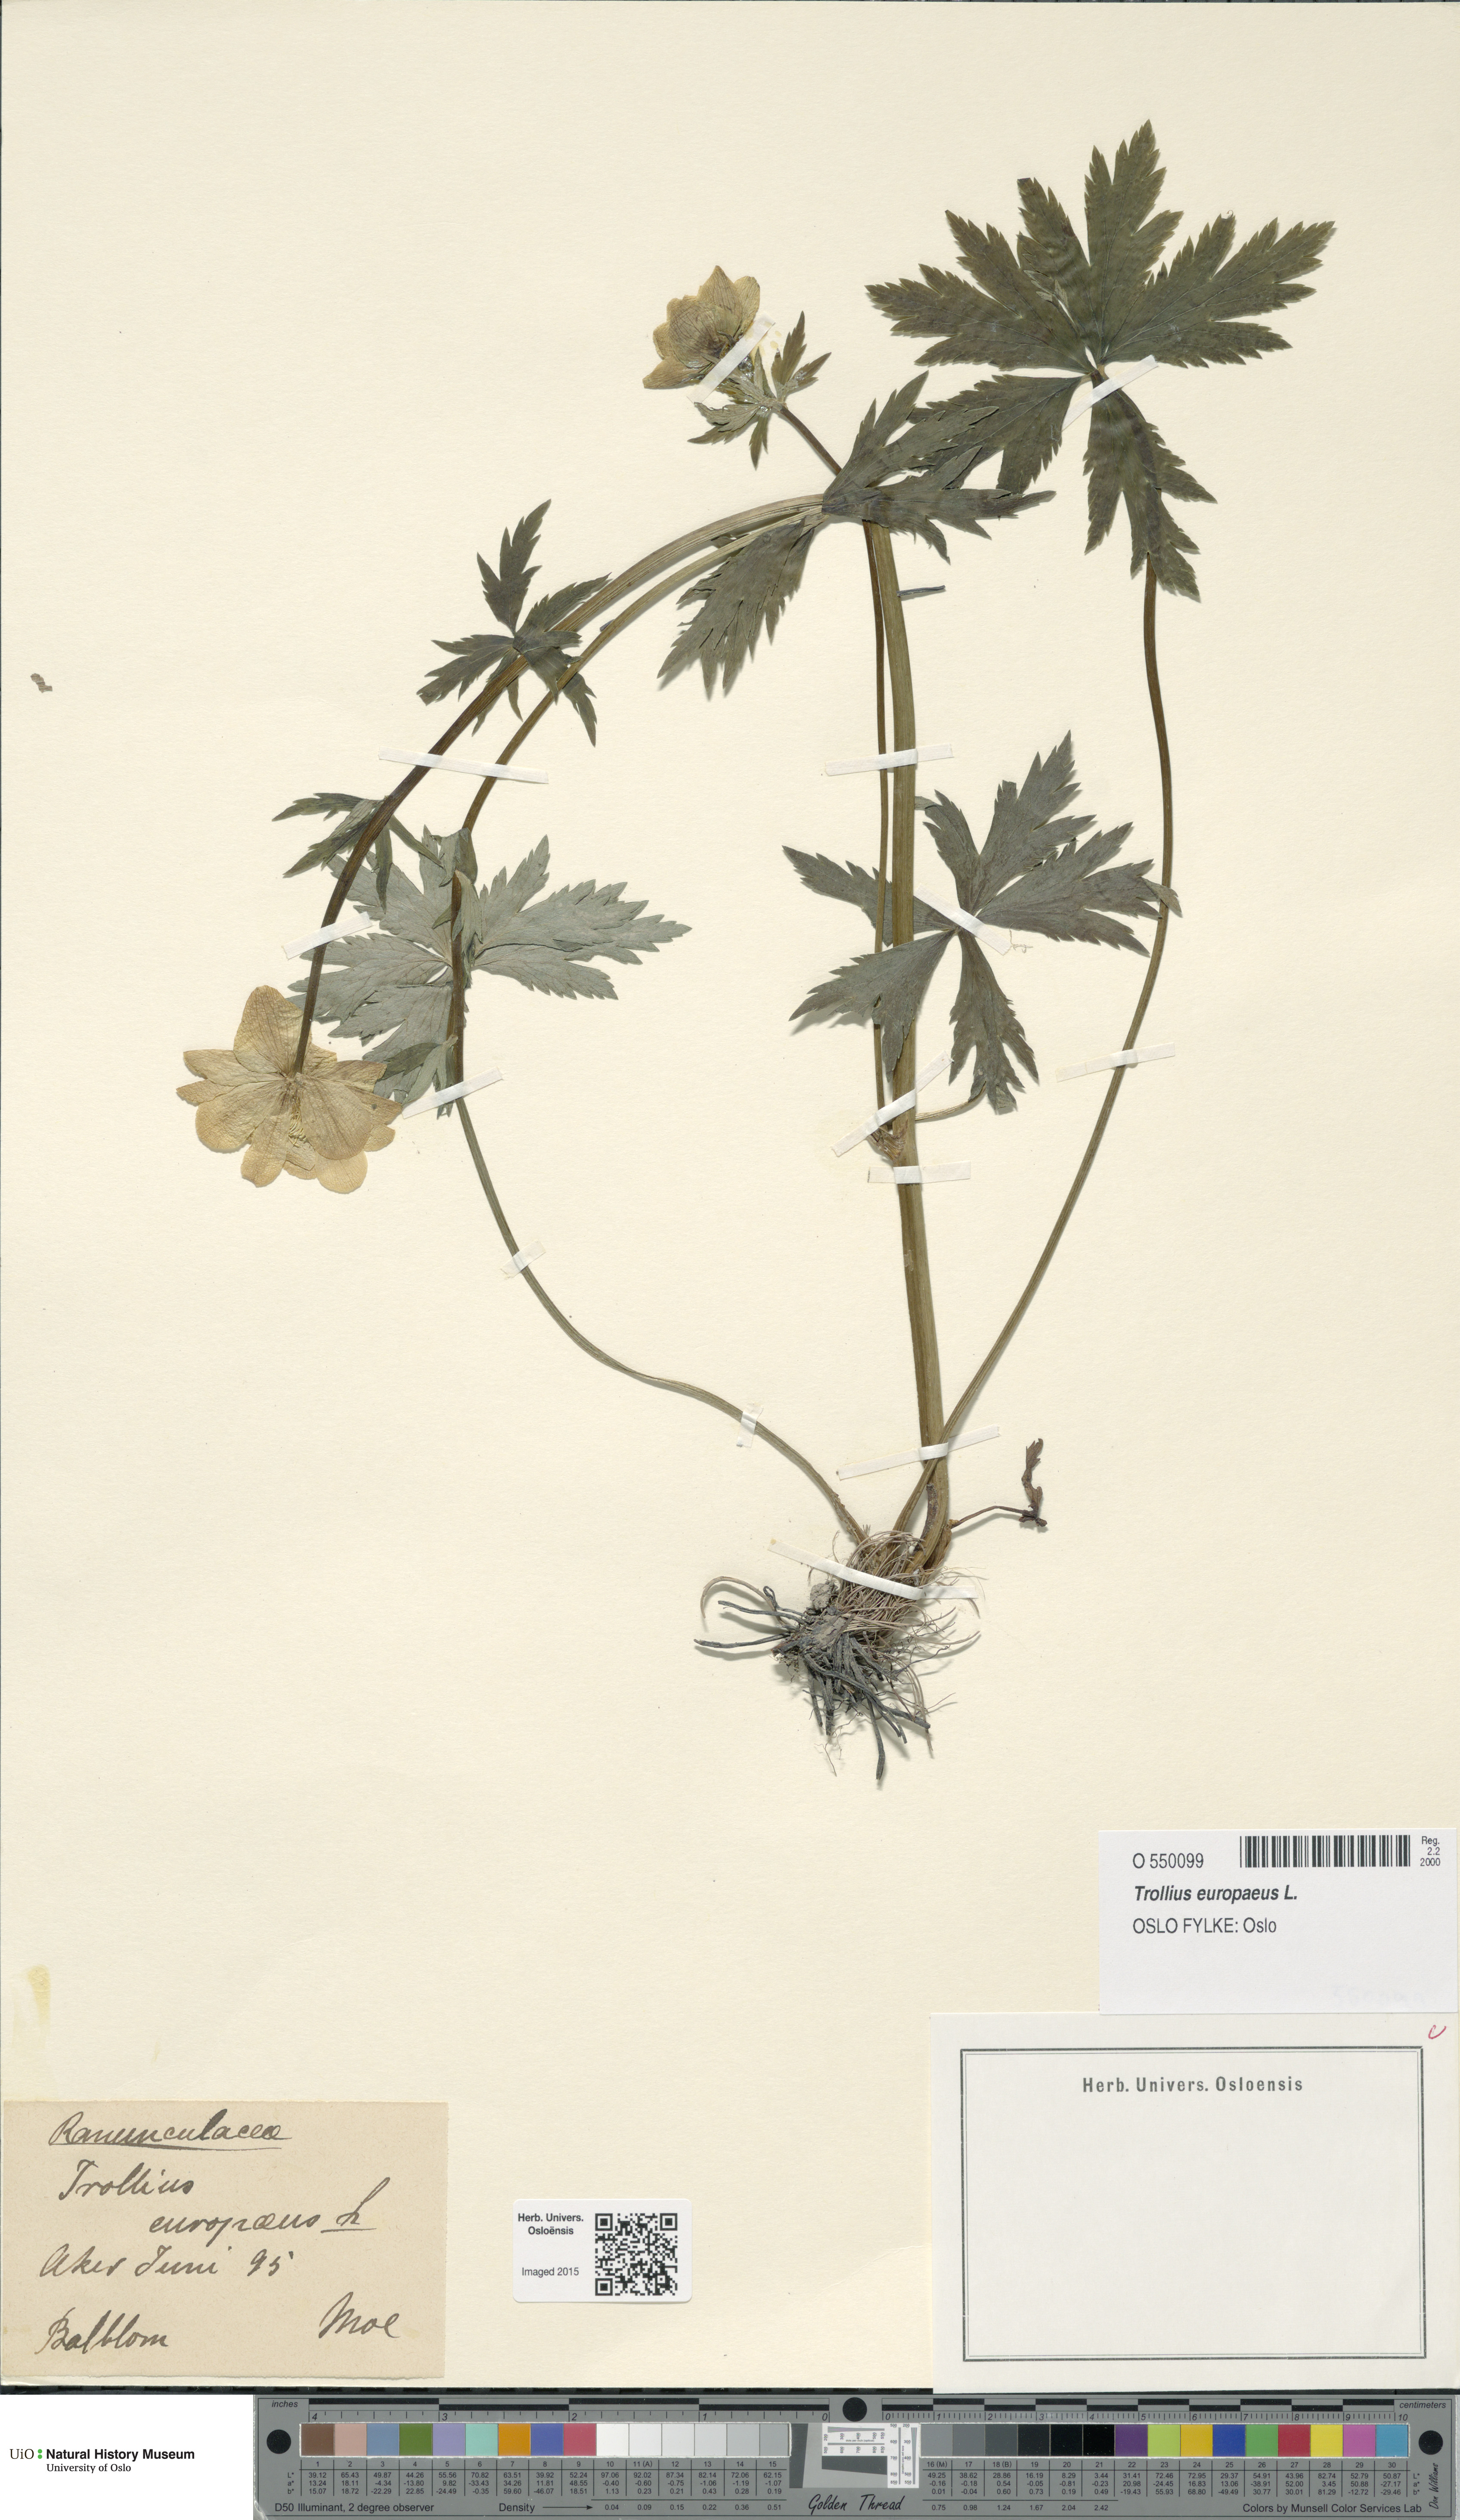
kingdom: Plantae
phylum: Tracheophyta
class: Magnoliopsida
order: Ranunculales
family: Ranunculaceae
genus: Trollius
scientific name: Trollius europaeus
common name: European globeflower
